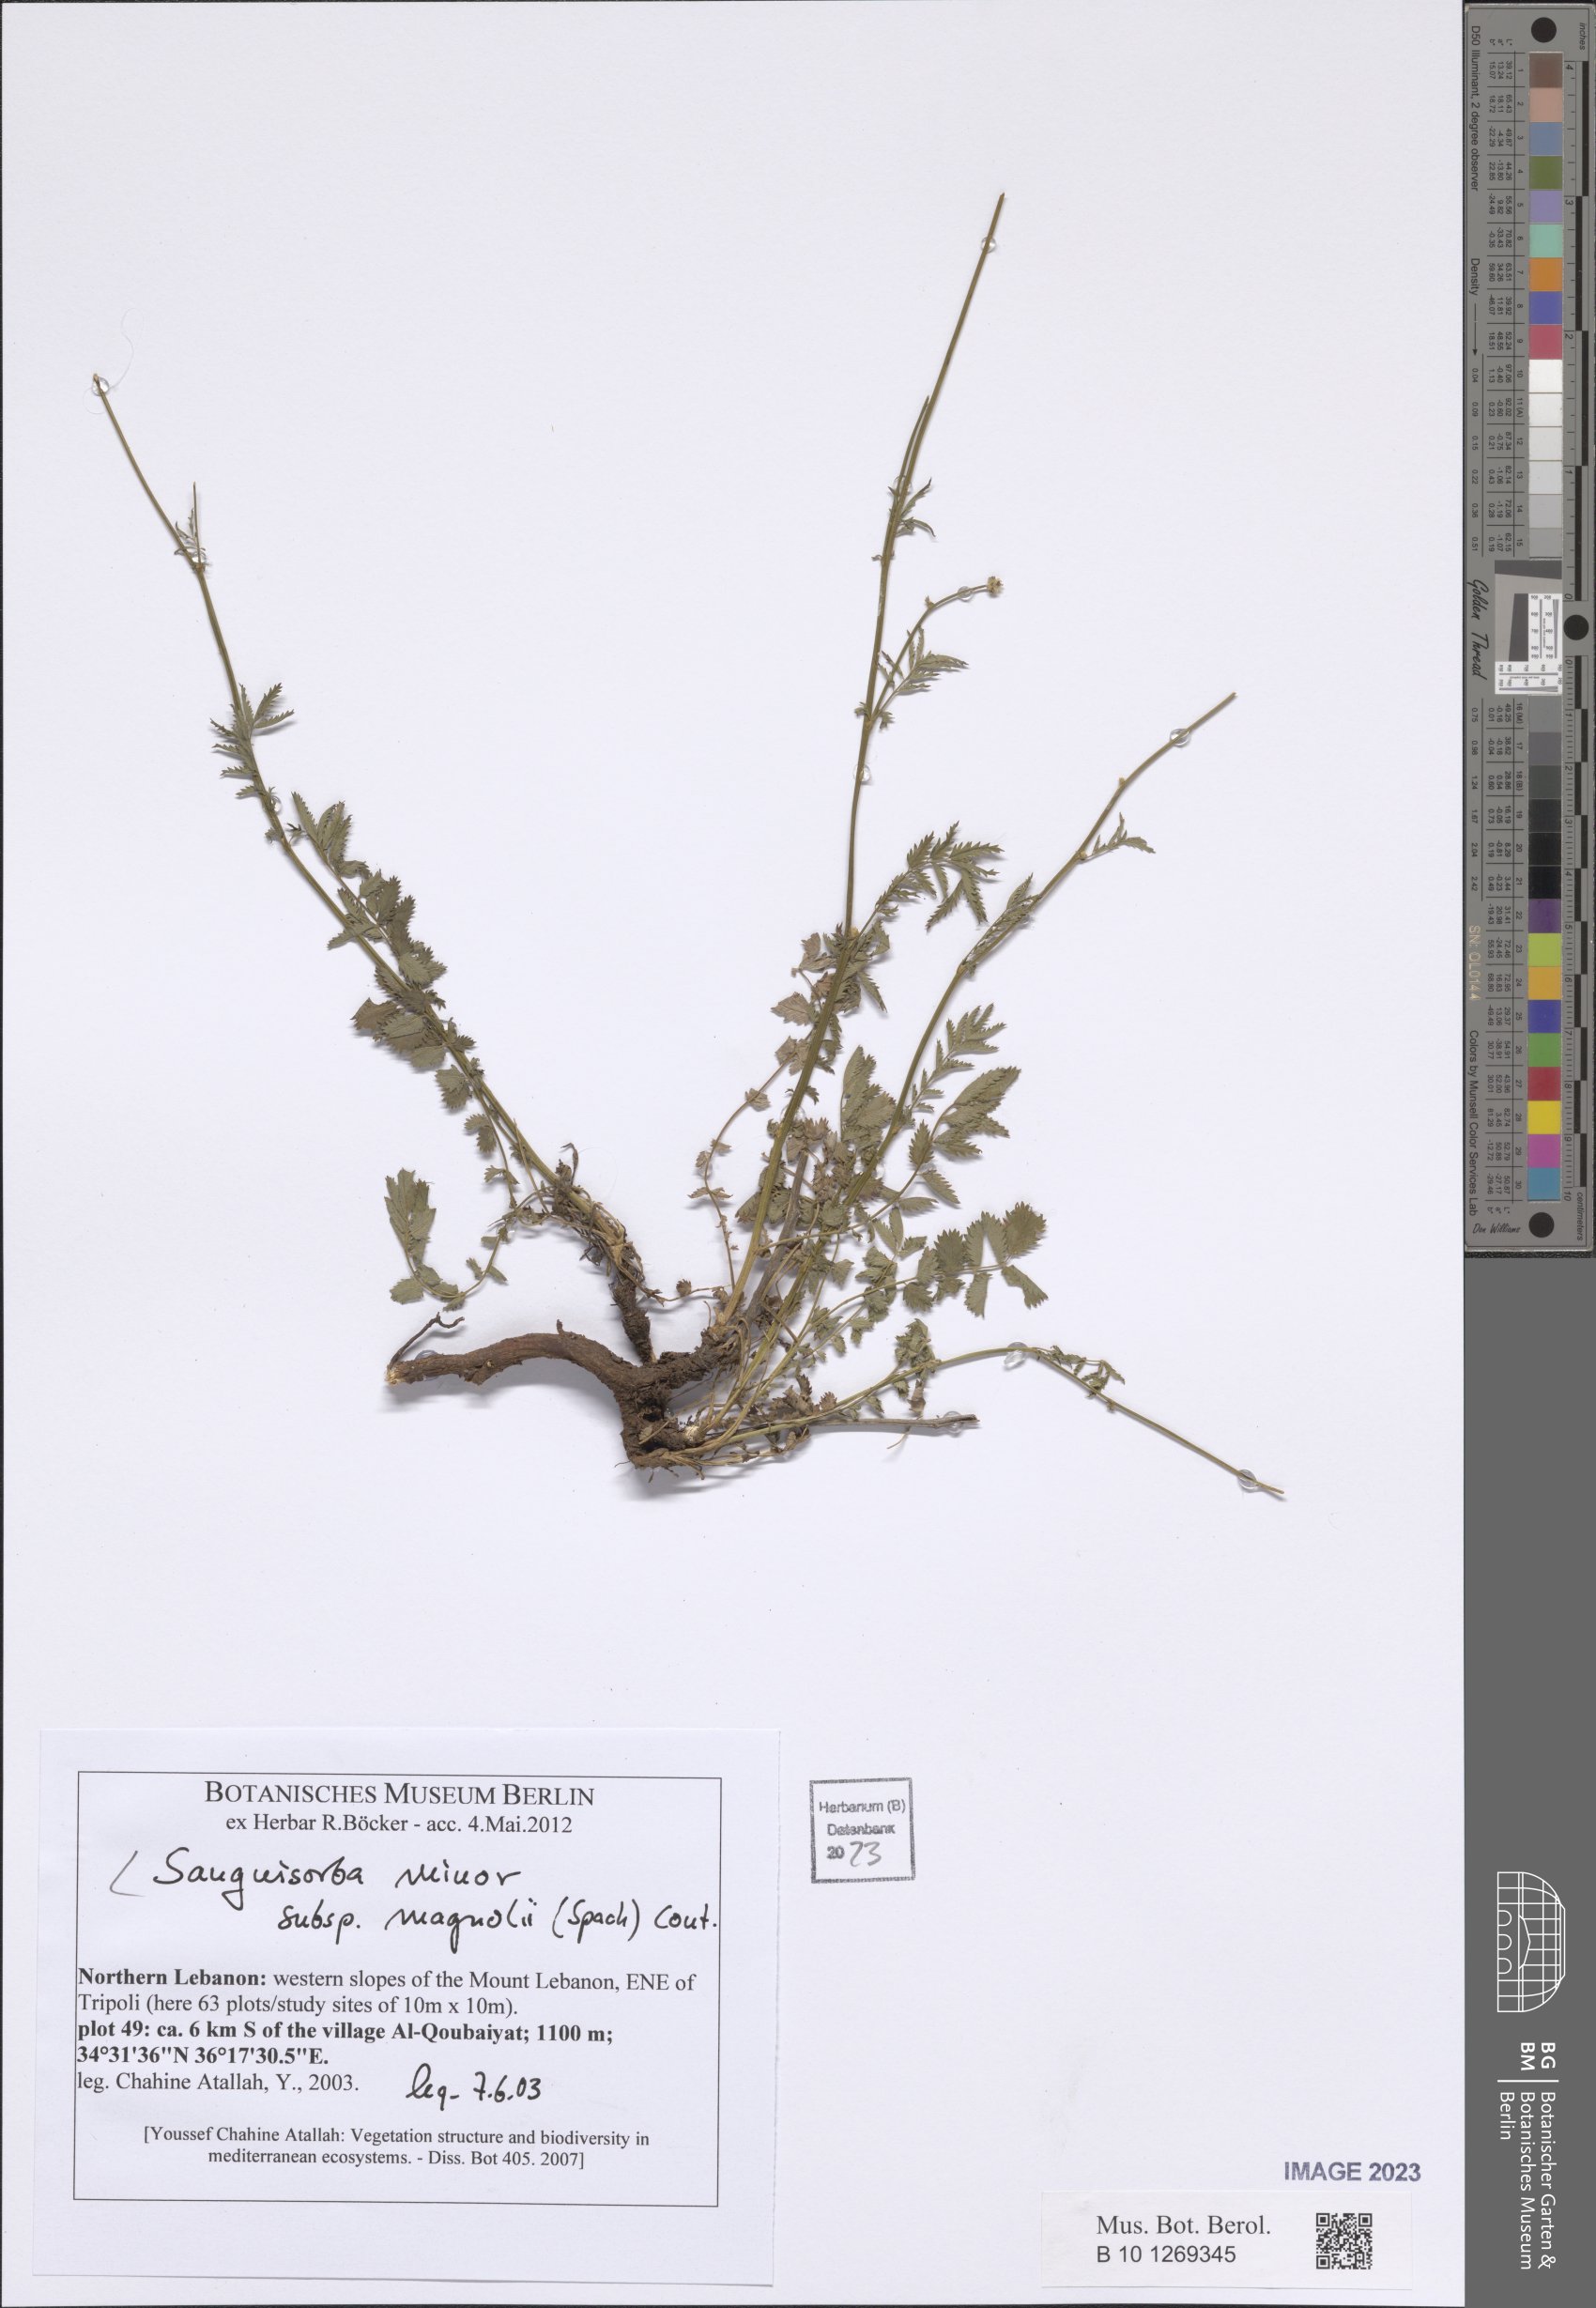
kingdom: Plantae
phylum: Tracheophyta
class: Magnoliopsida
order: Rosales
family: Rosaceae
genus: Poterium
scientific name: Poterium verrucosum
